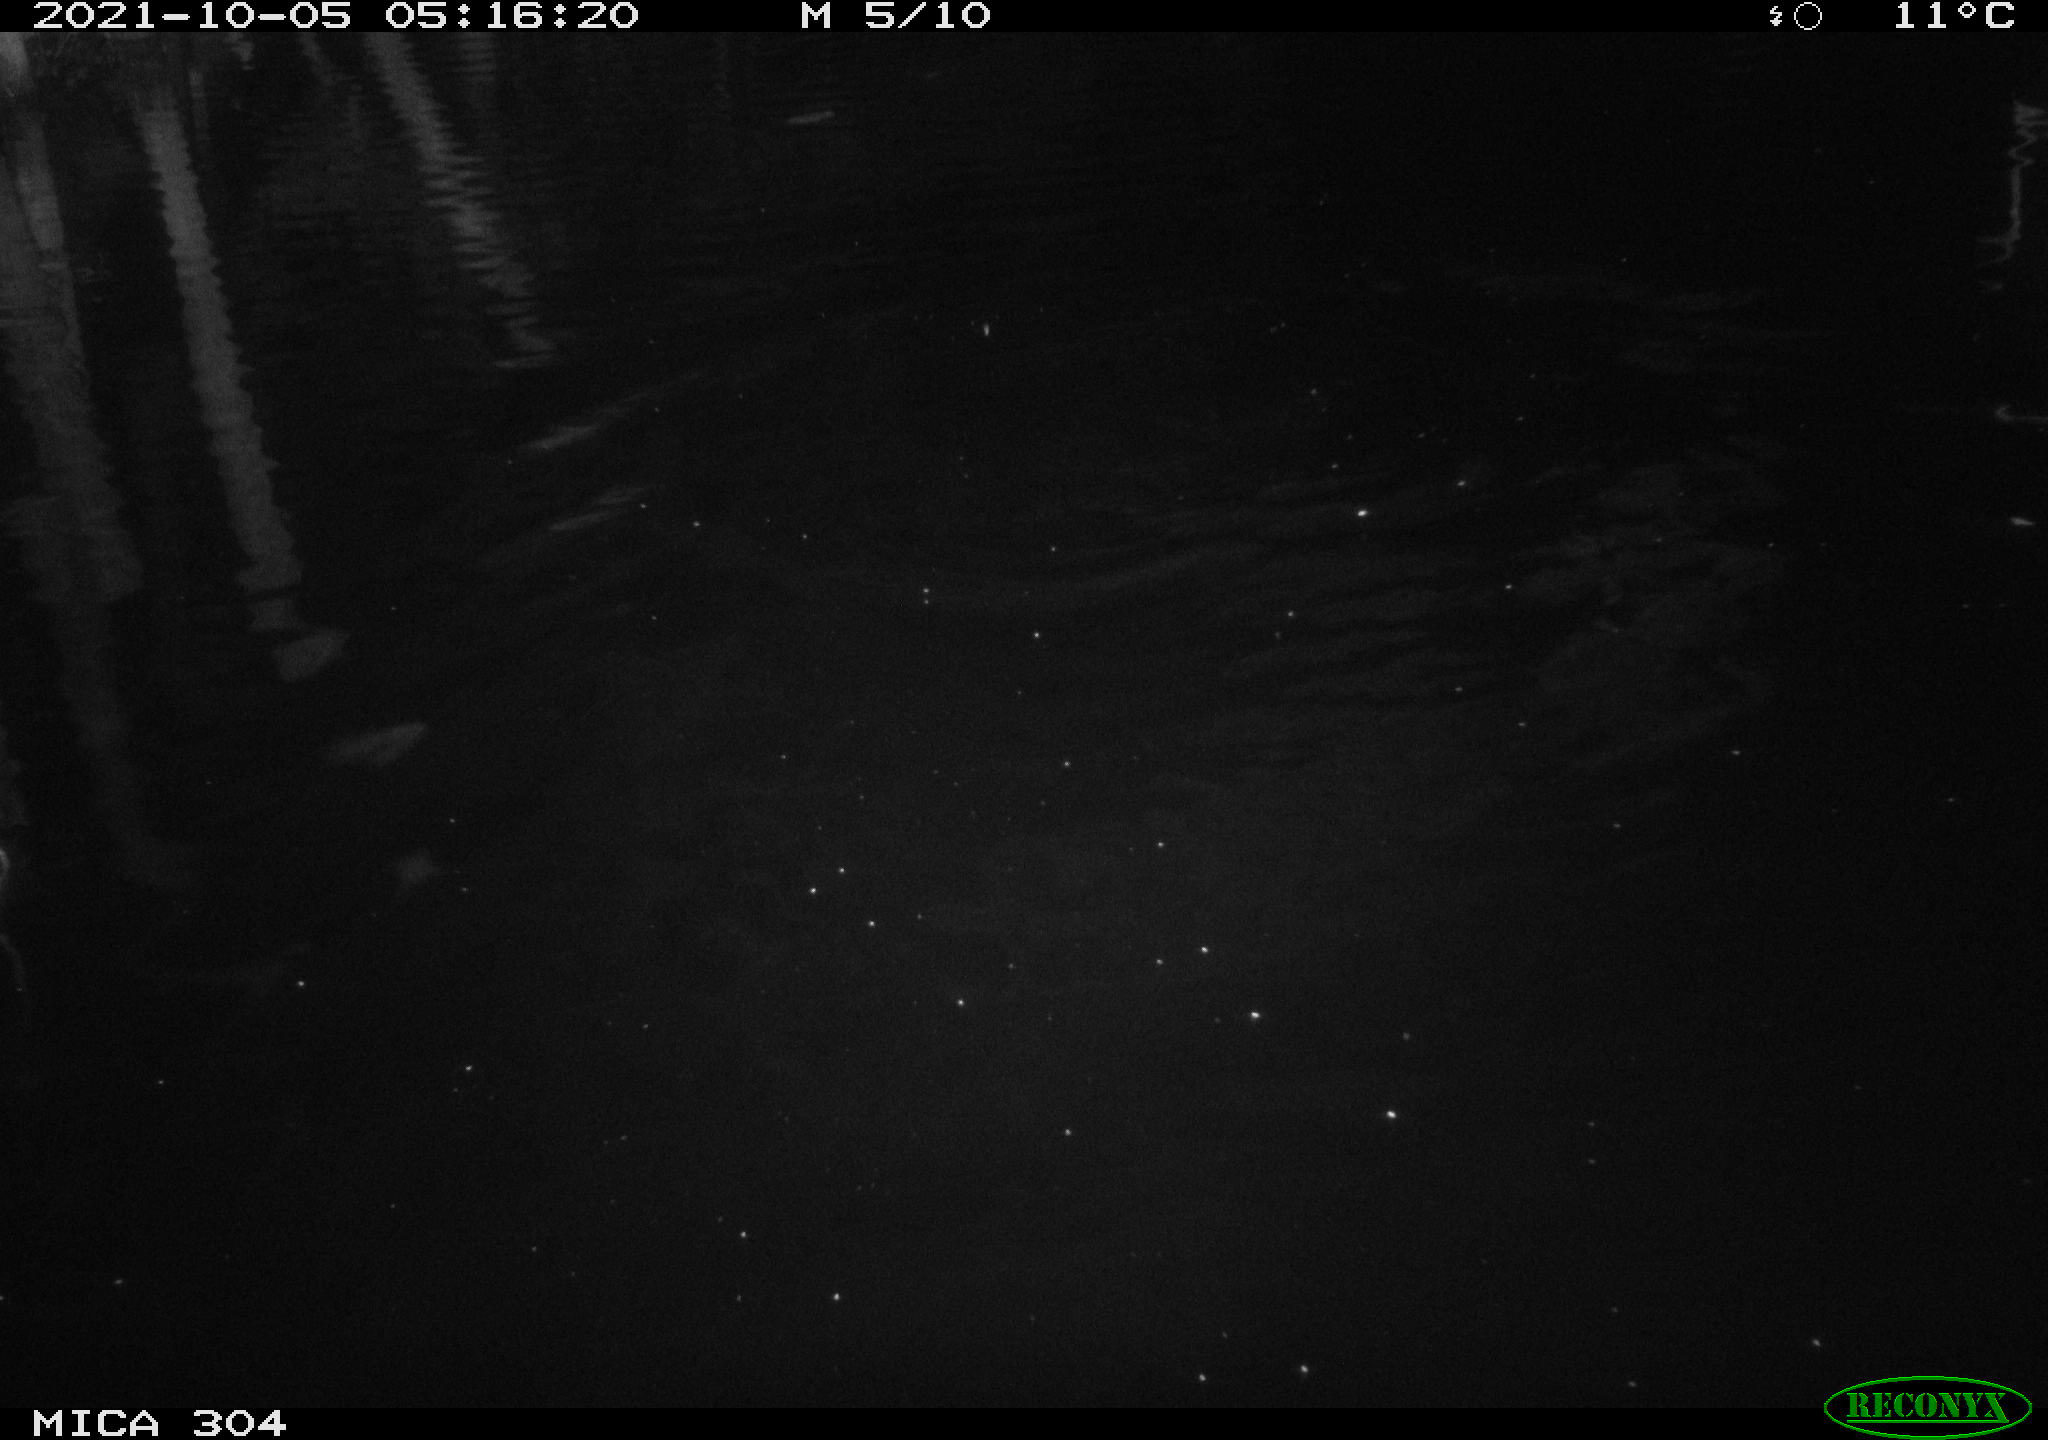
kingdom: Animalia
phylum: Chordata
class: Mammalia
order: Rodentia
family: Cricetidae
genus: Ondatra
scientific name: Ondatra zibethicus
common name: Muskrat
